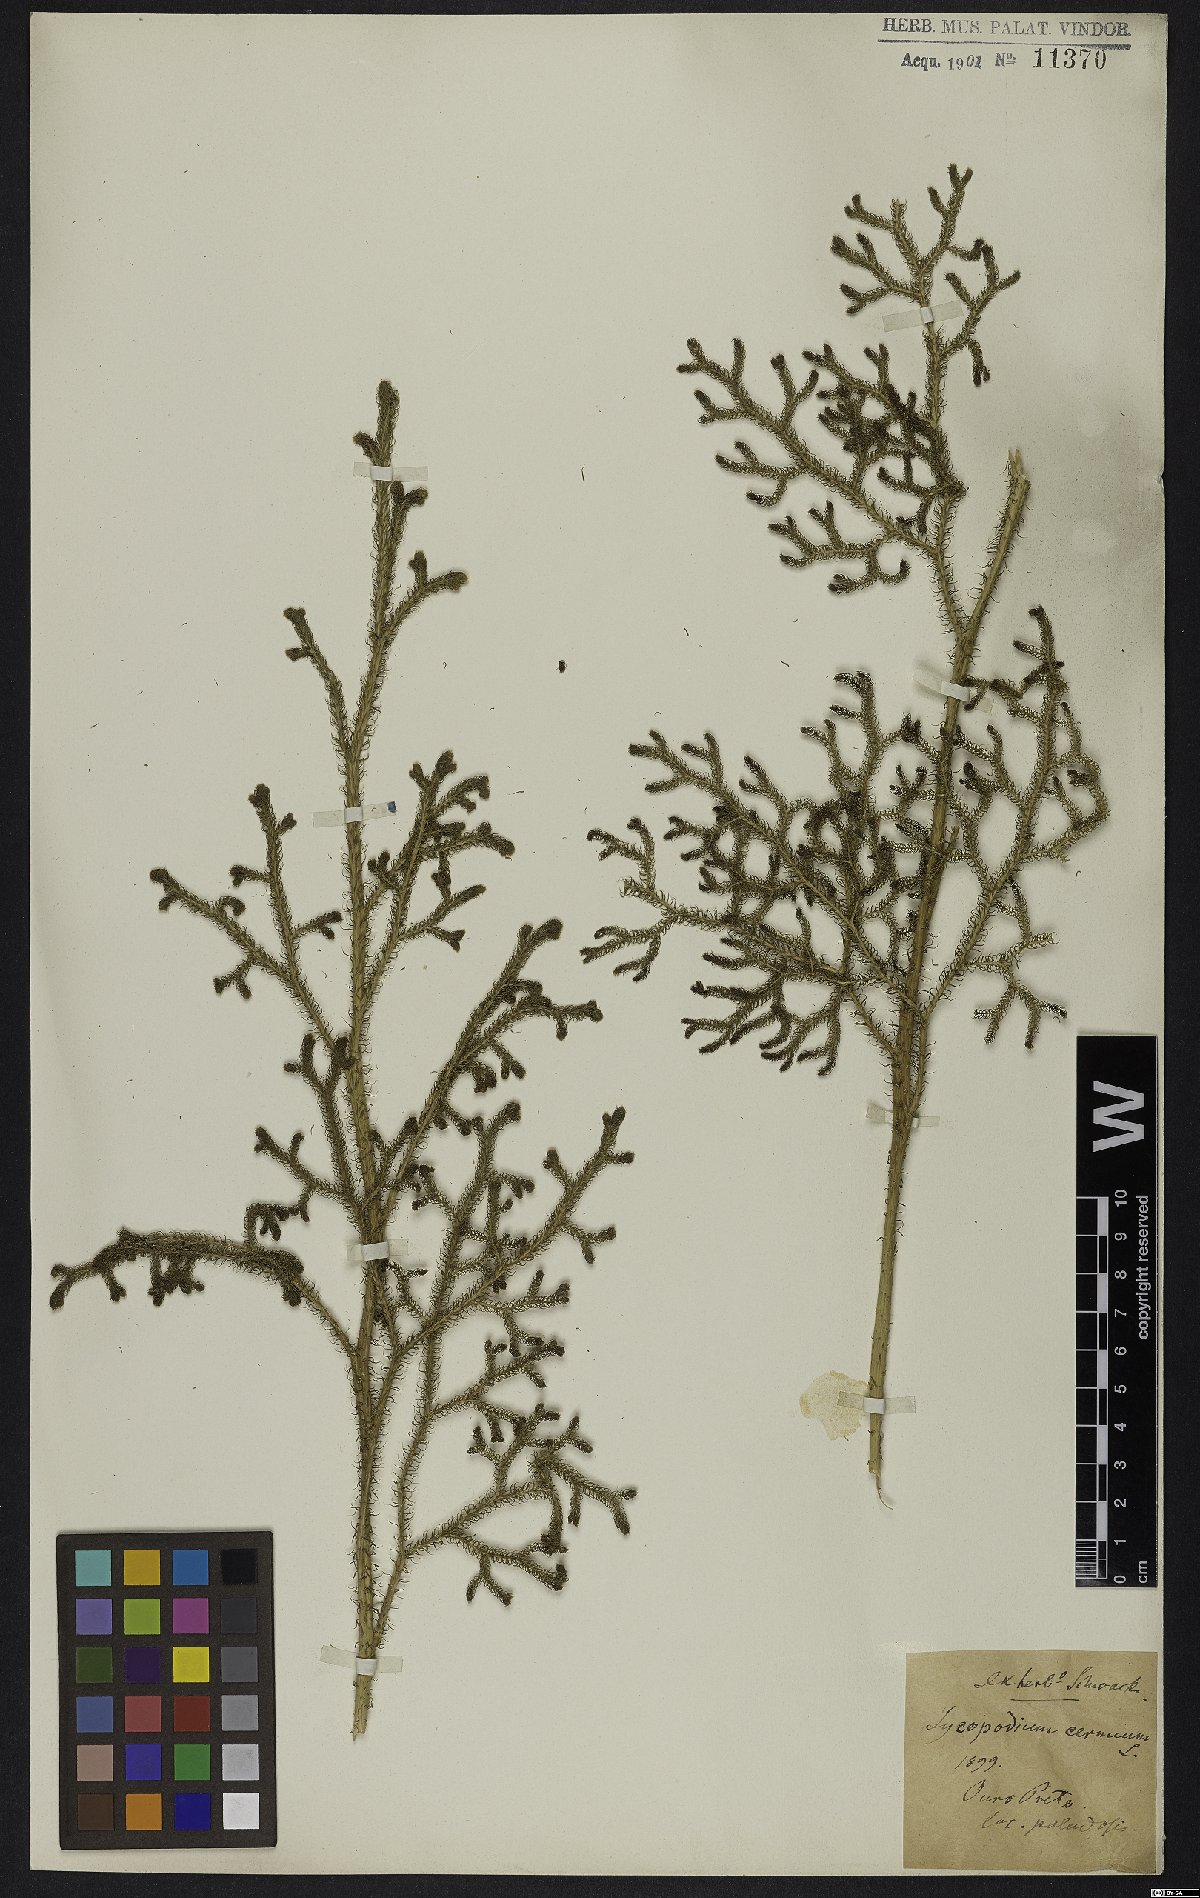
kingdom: Plantae
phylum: Tracheophyta
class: Lycopodiopsida
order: Lycopodiales
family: Lycopodiaceae
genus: Palhinhaea
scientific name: Palhinhaea cernua
